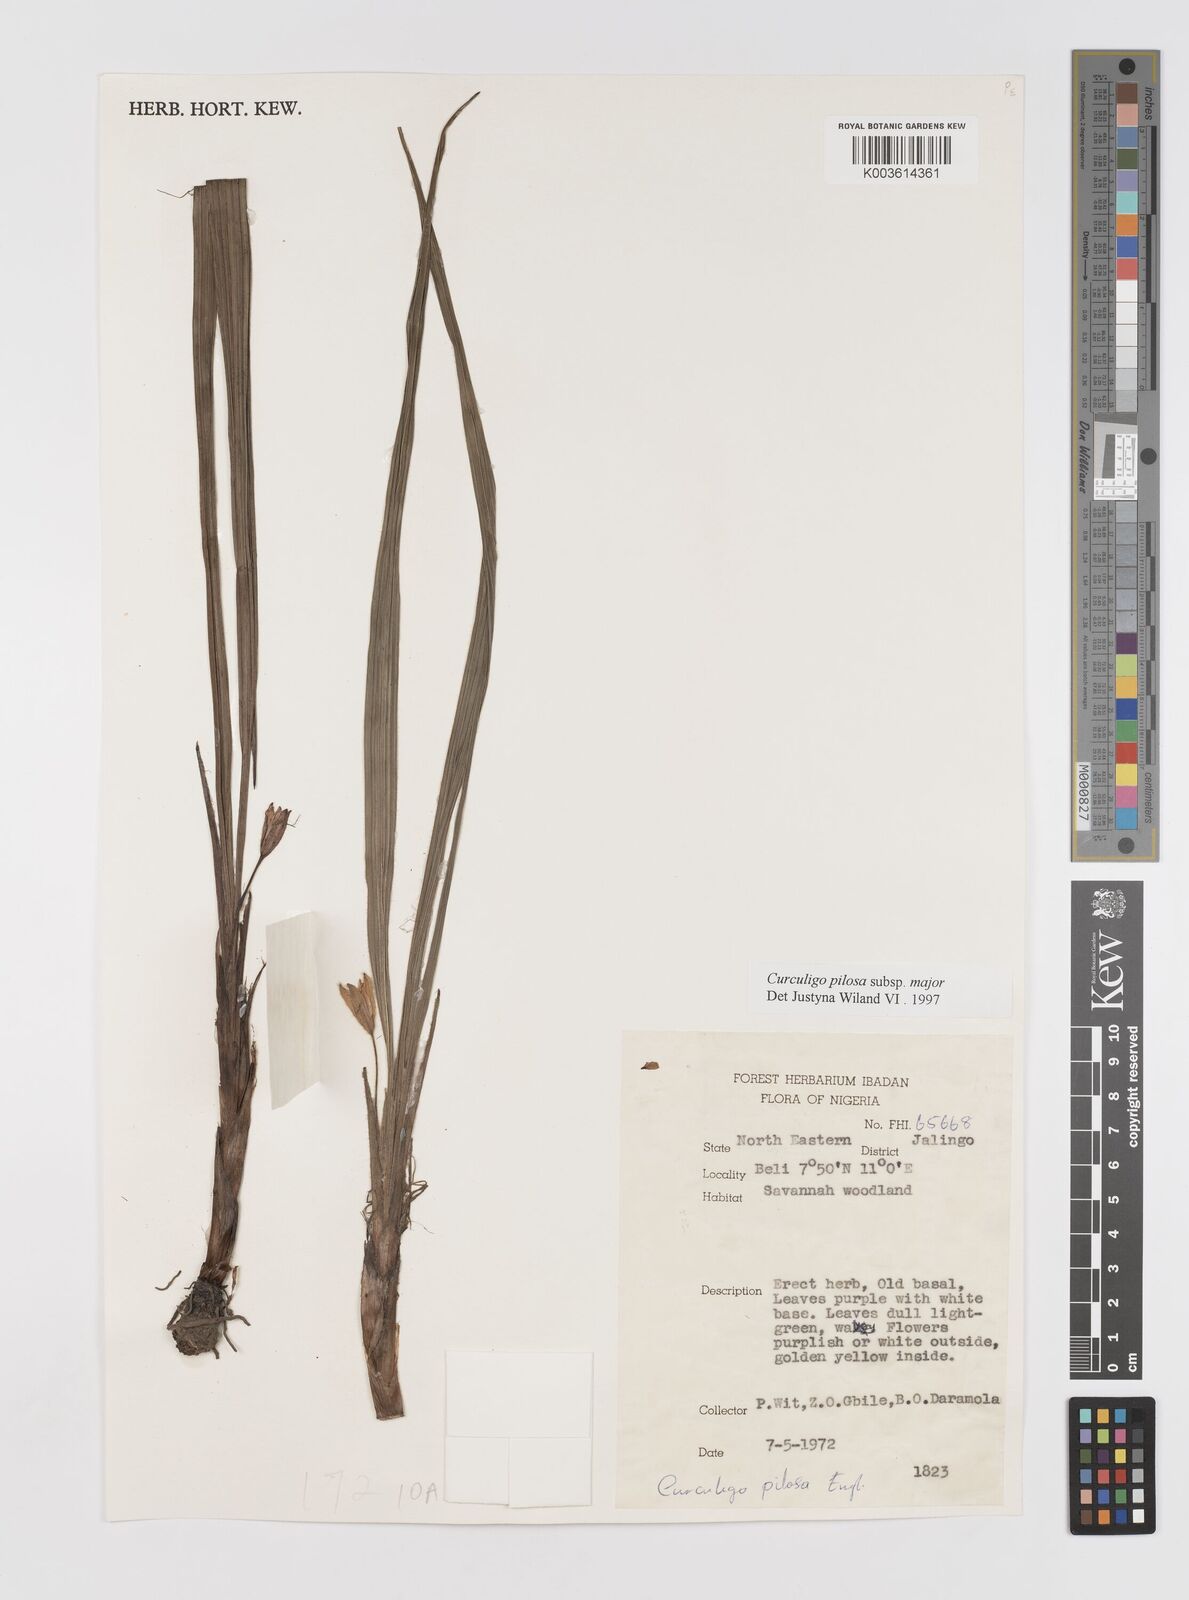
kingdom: Plantae
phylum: Tracheophyta
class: Liliopsida
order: Asparagales
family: Hypoxidaceae
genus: Curculigo
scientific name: Curculigo pilosa
